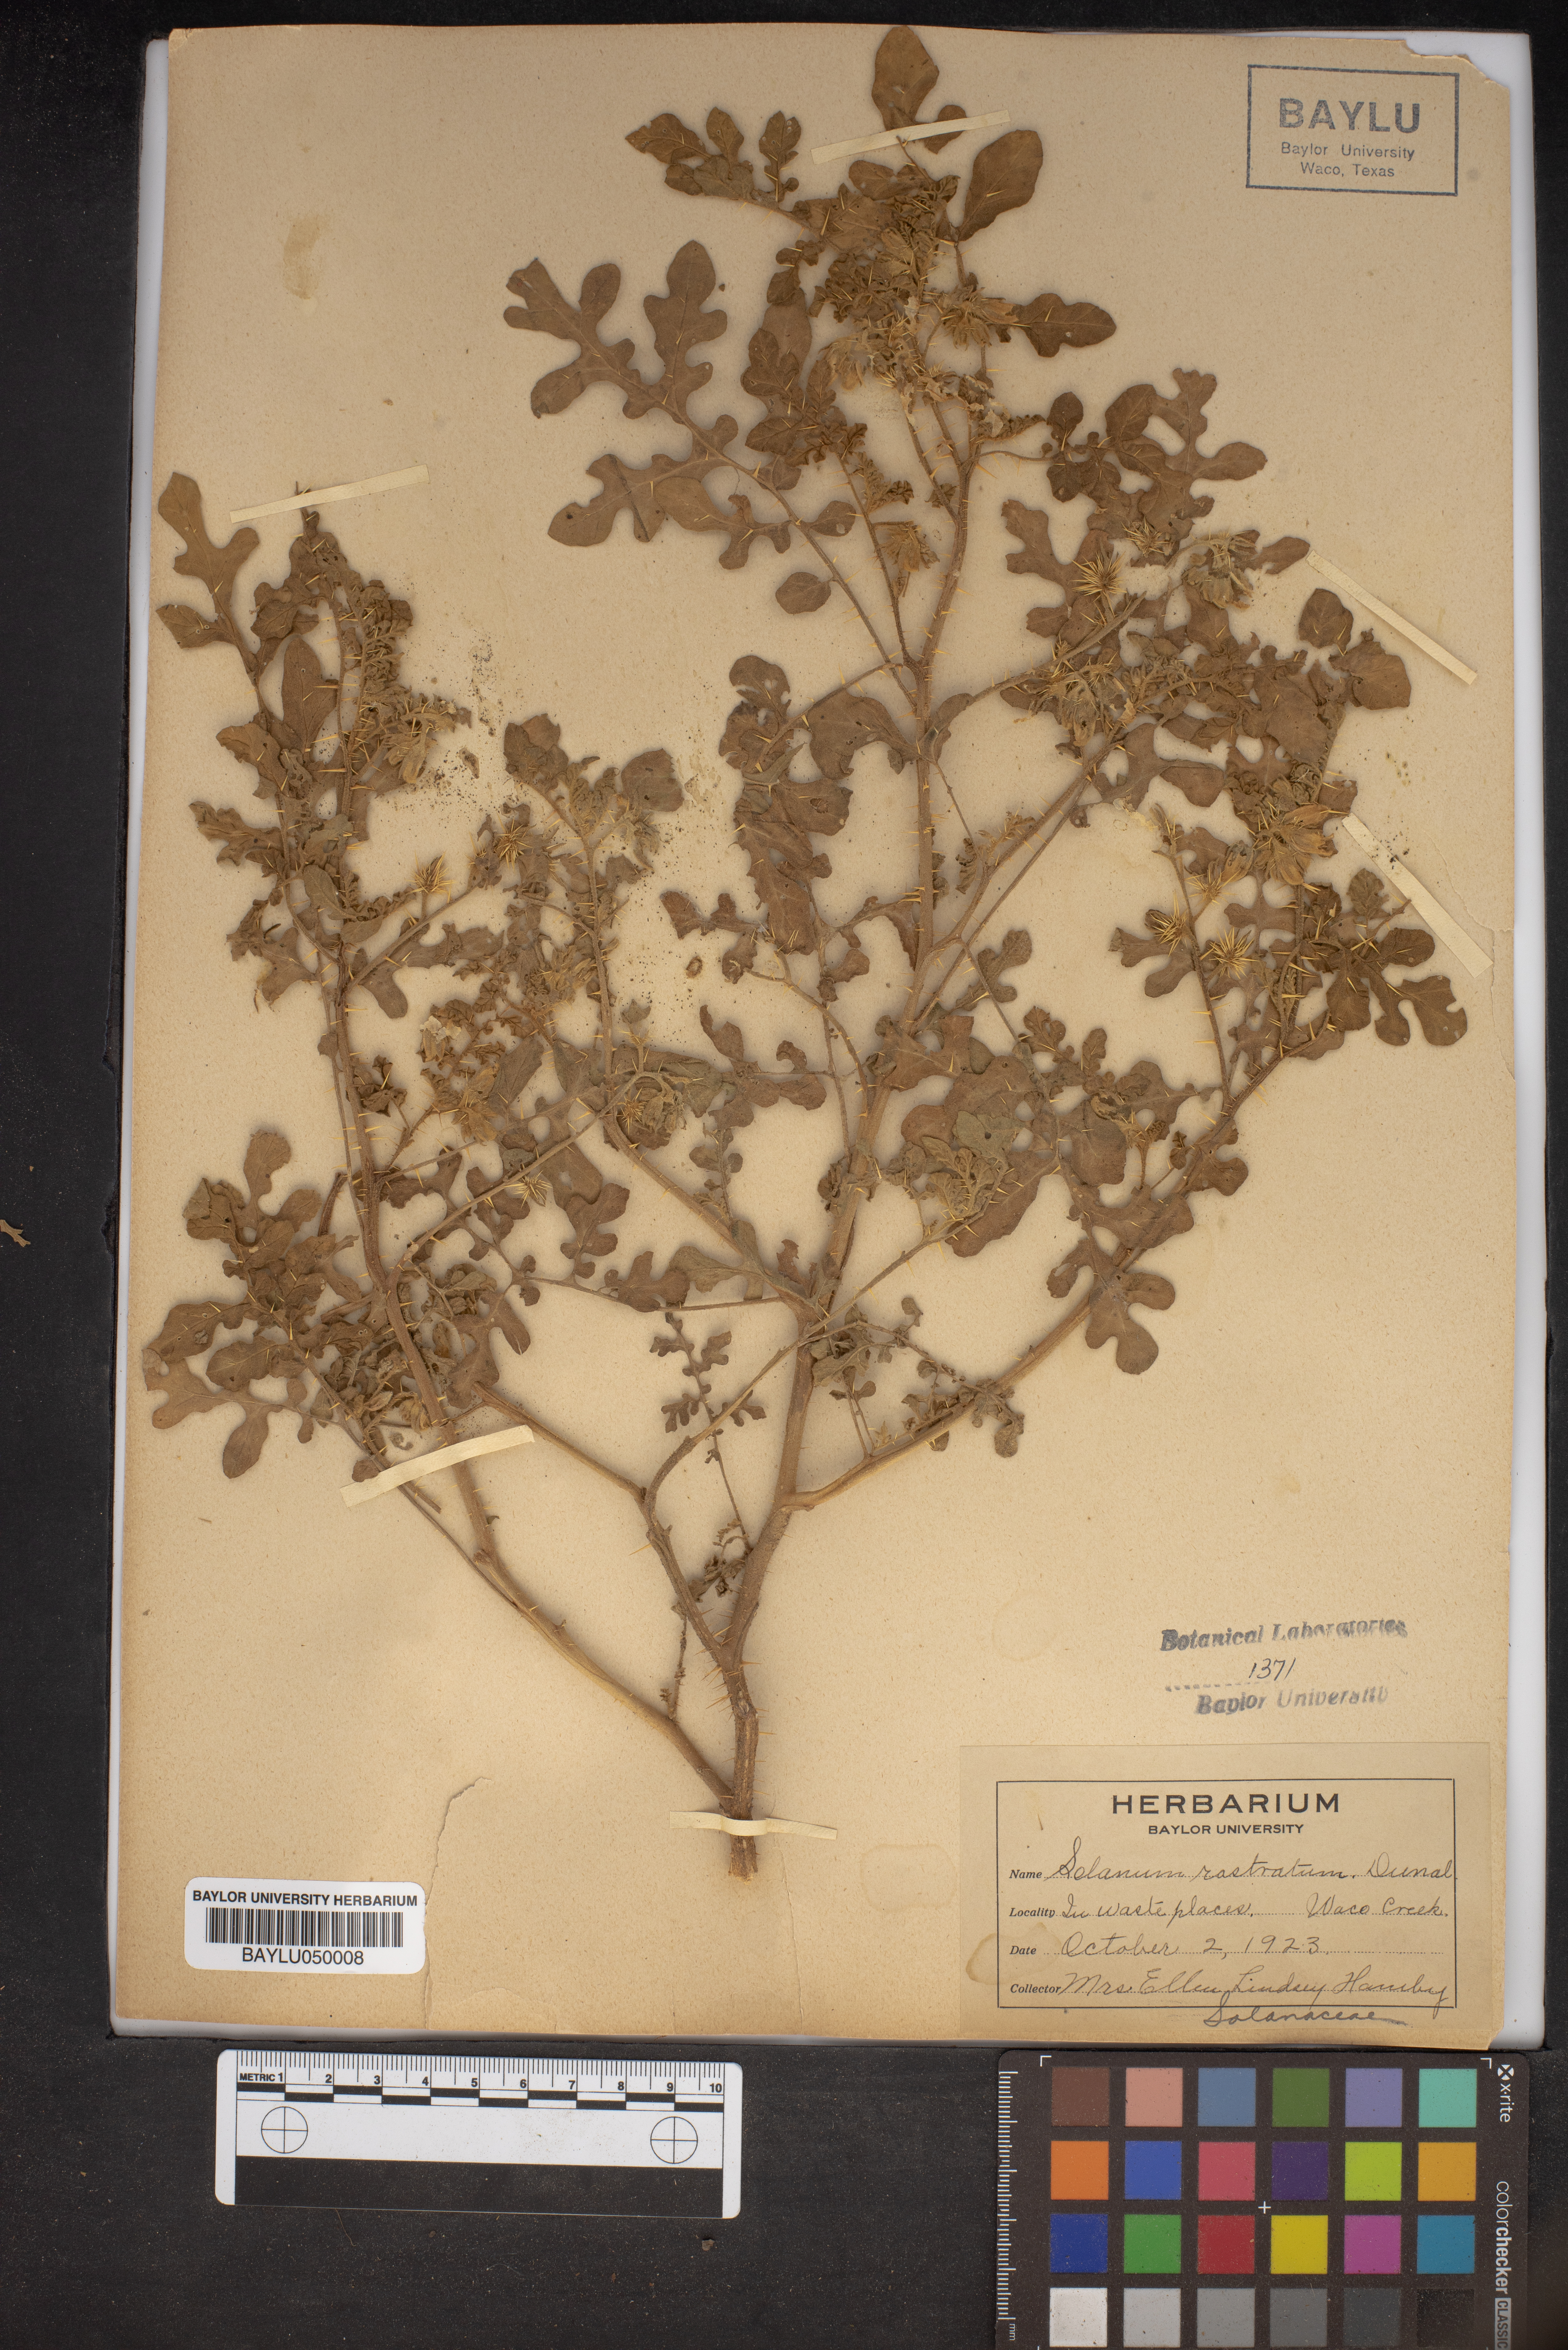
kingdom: Plantae
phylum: Tracheophyta
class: Magnoliopsida
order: Solanales
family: Solanaceae
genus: Solanum
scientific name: Solanum angustifolium
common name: Buffalobur nightshade
